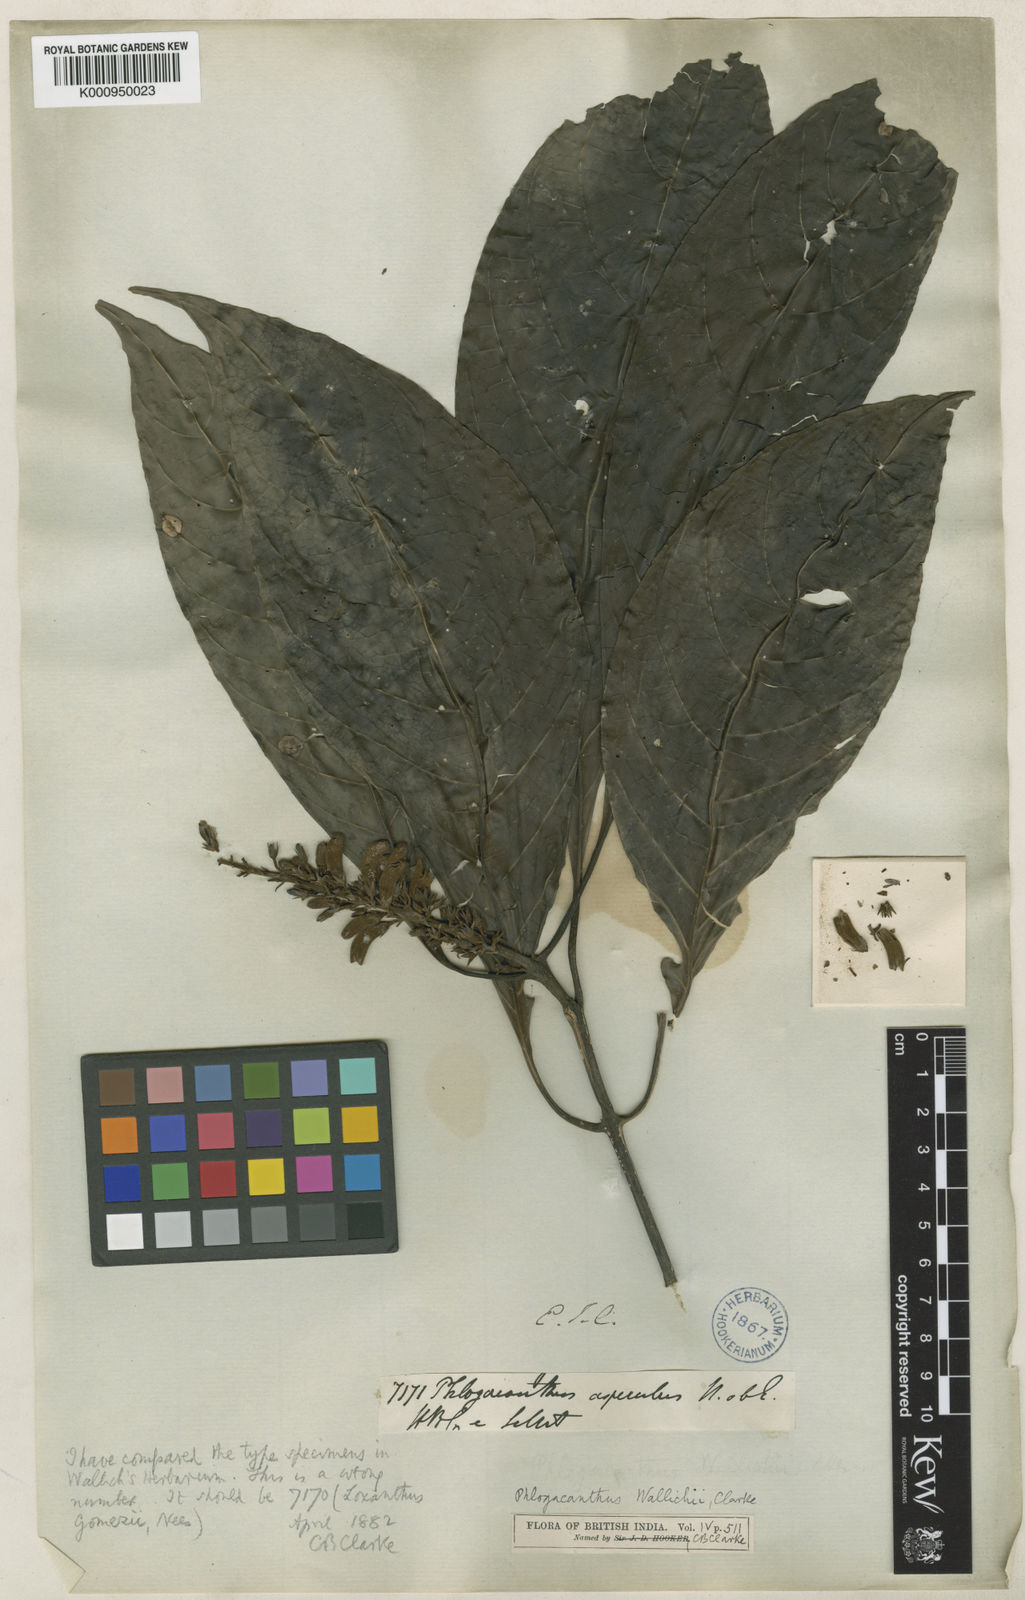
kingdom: Plantae
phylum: Tracheophyta
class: Magnoliopsida
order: Lamiales
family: Acanthaceae
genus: Phlogacanthus
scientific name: Phlogacanthus gomezii
